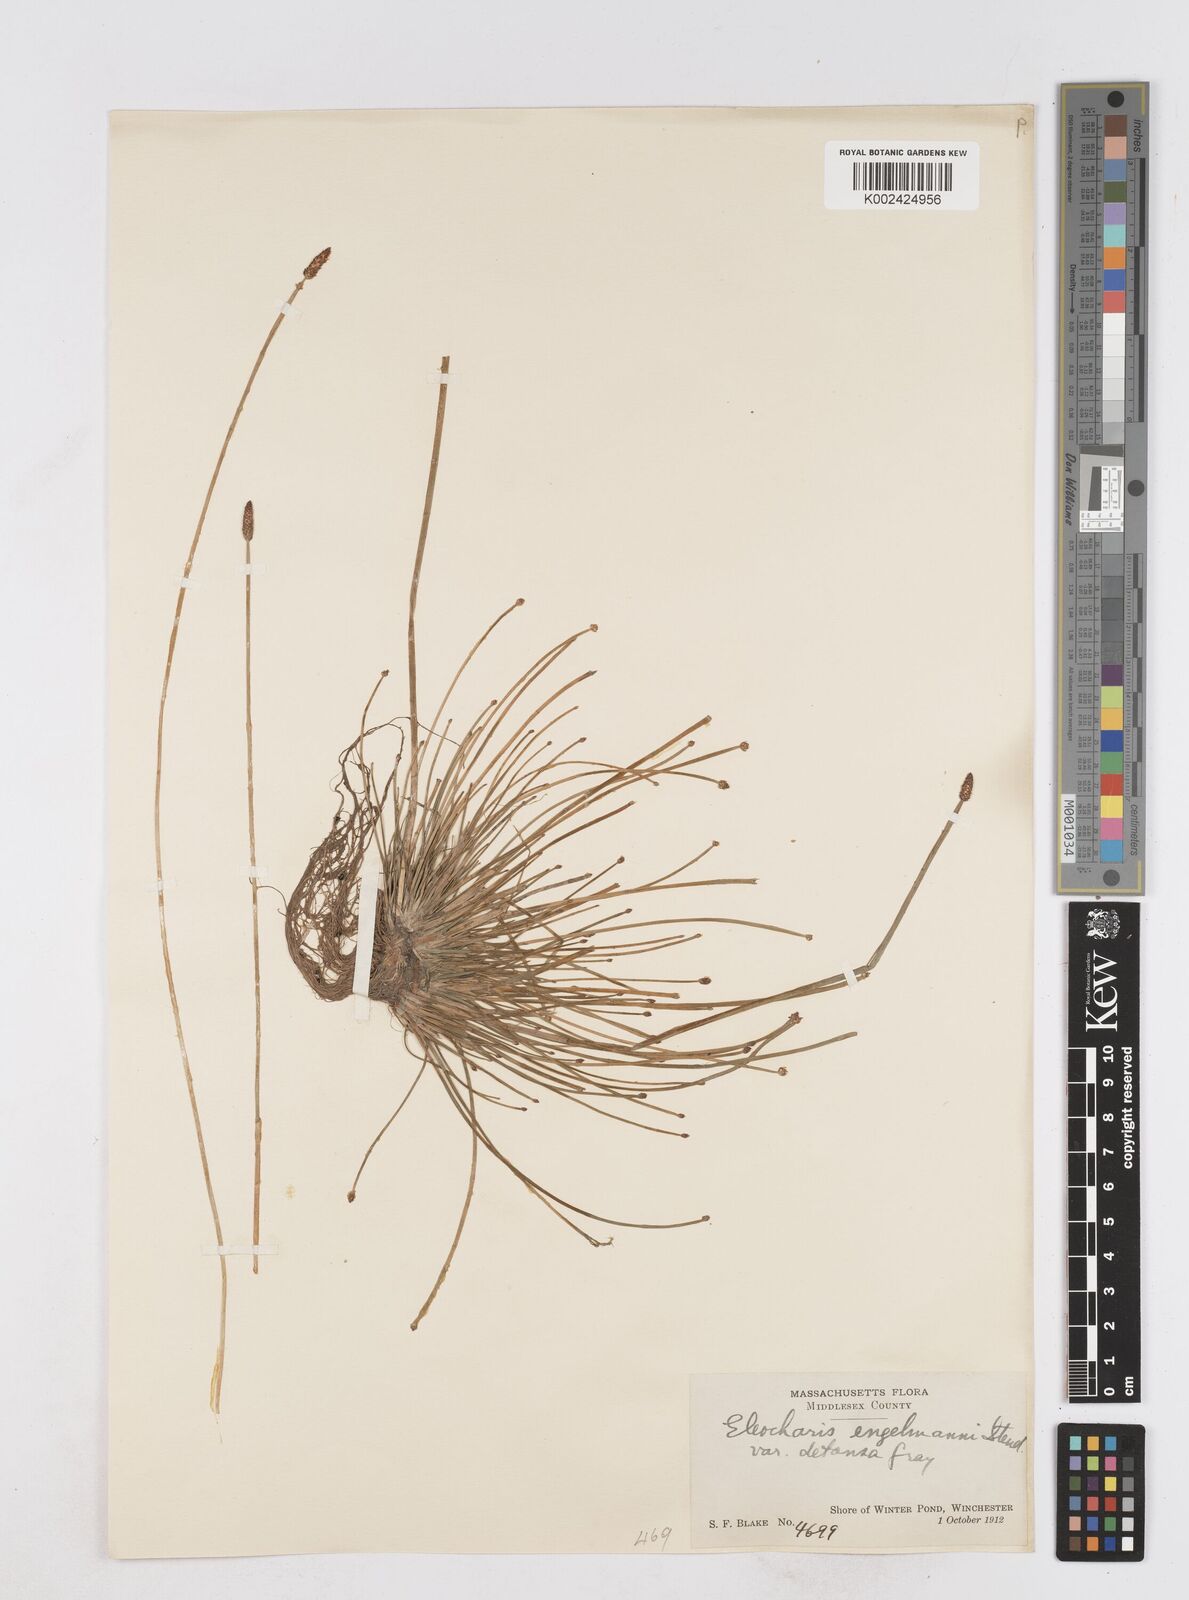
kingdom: Plantae
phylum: Tracheophyta
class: Liliopsida
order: Poales
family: Cyperaceae
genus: Eleocharis
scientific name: Eleocharis engelmannii
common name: Engelmann's spikerush
